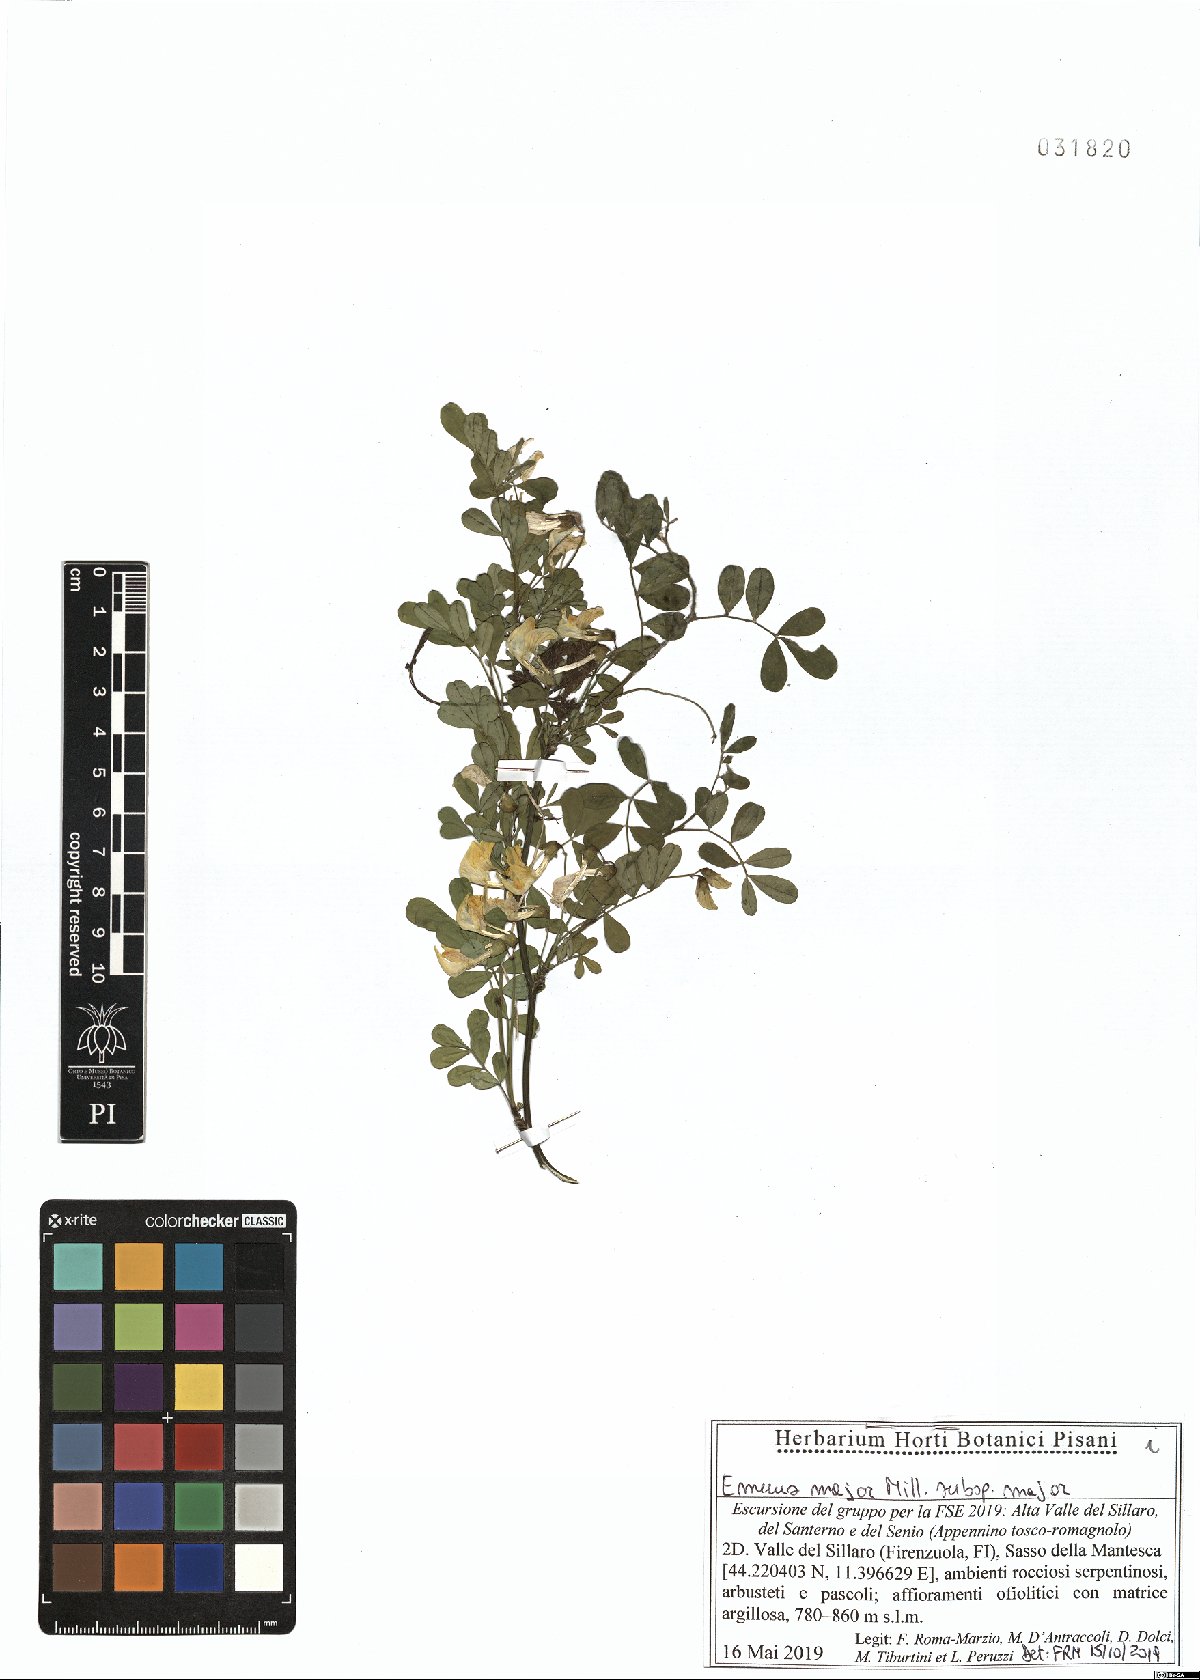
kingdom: Plantae
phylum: Tracheophyta
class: Magnoliopsida
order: Fabales
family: Fabaceae
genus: Hippocrepis
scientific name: Hippocrepis emerus
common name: Scorpion senna
